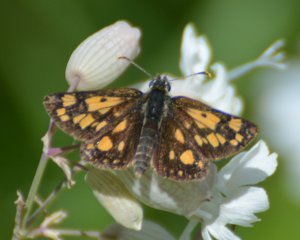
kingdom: Animalia
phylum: Arthropoda
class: Insecta
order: Lepidoptera
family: Hesperiidae
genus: Carterocephalus
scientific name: Carterocephalus palaemon
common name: Chequered Skipper
